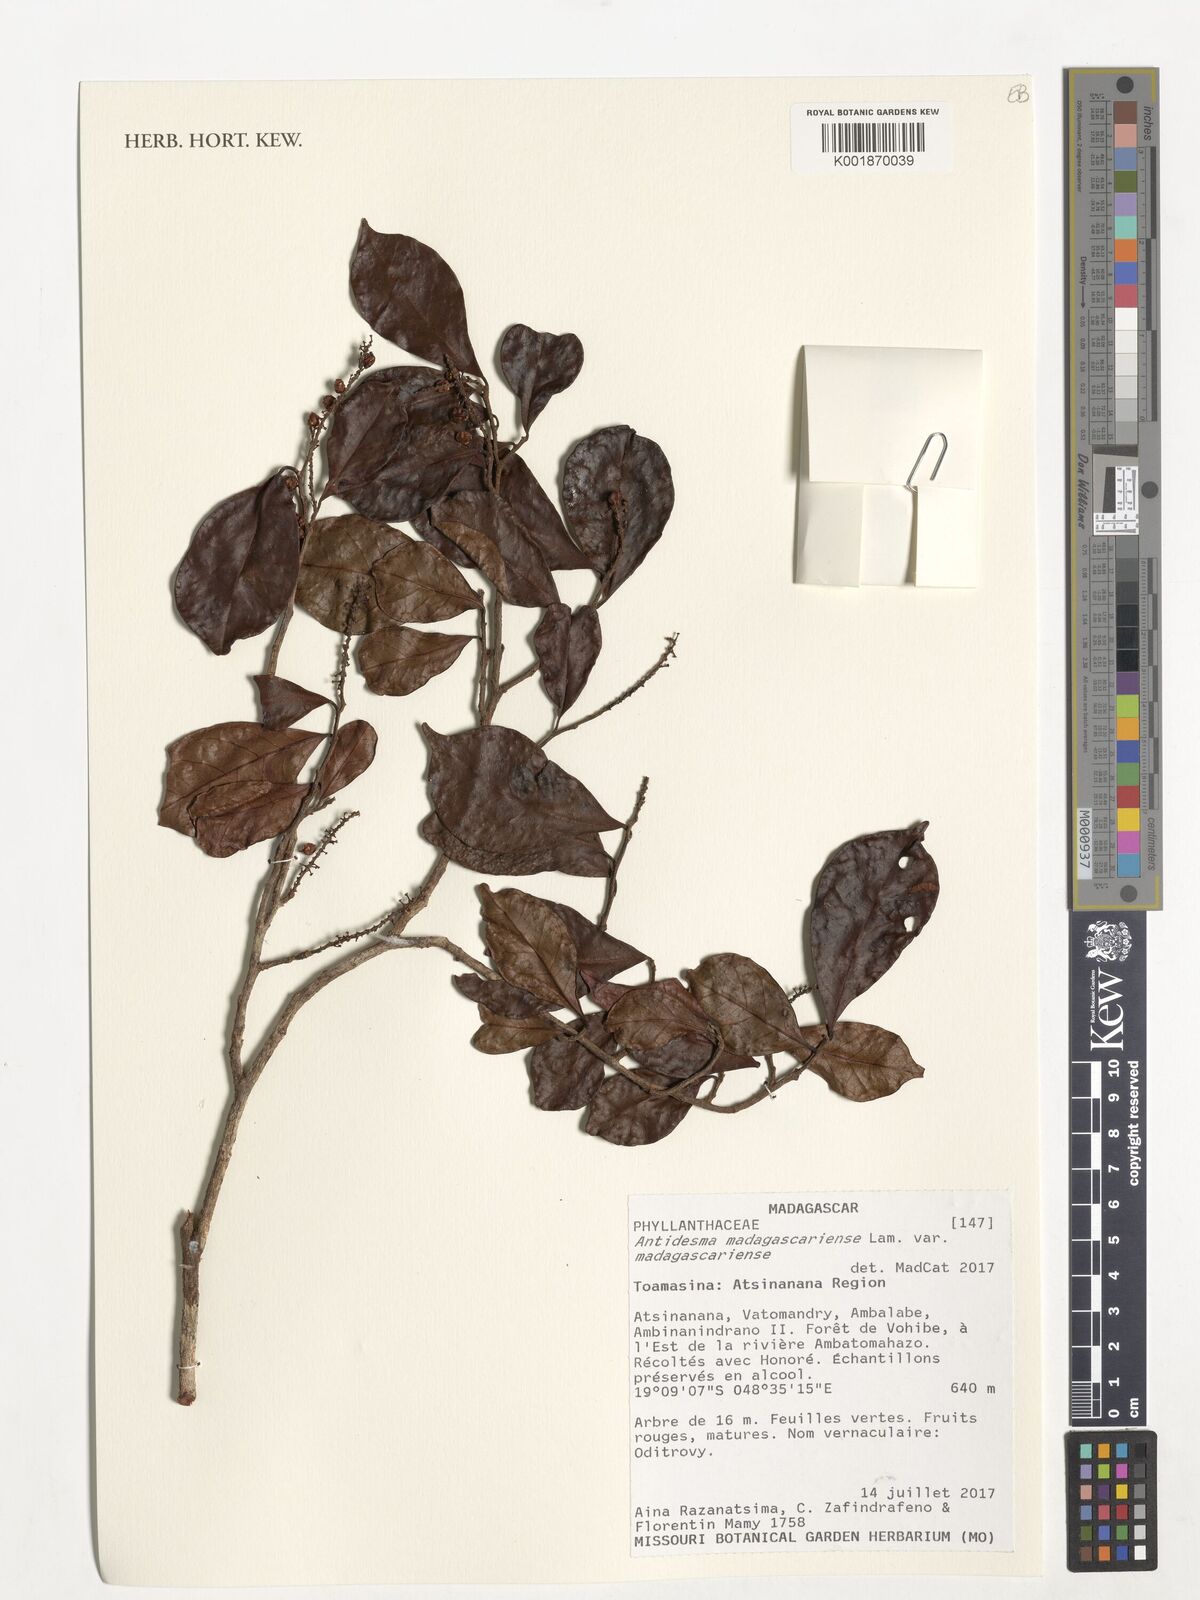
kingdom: Plantae
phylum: Tracheophyta
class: Magnoliopsida
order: Malpighiales
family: Phyllanthaceae
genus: Antidesma
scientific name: Antidesma madagascariense
